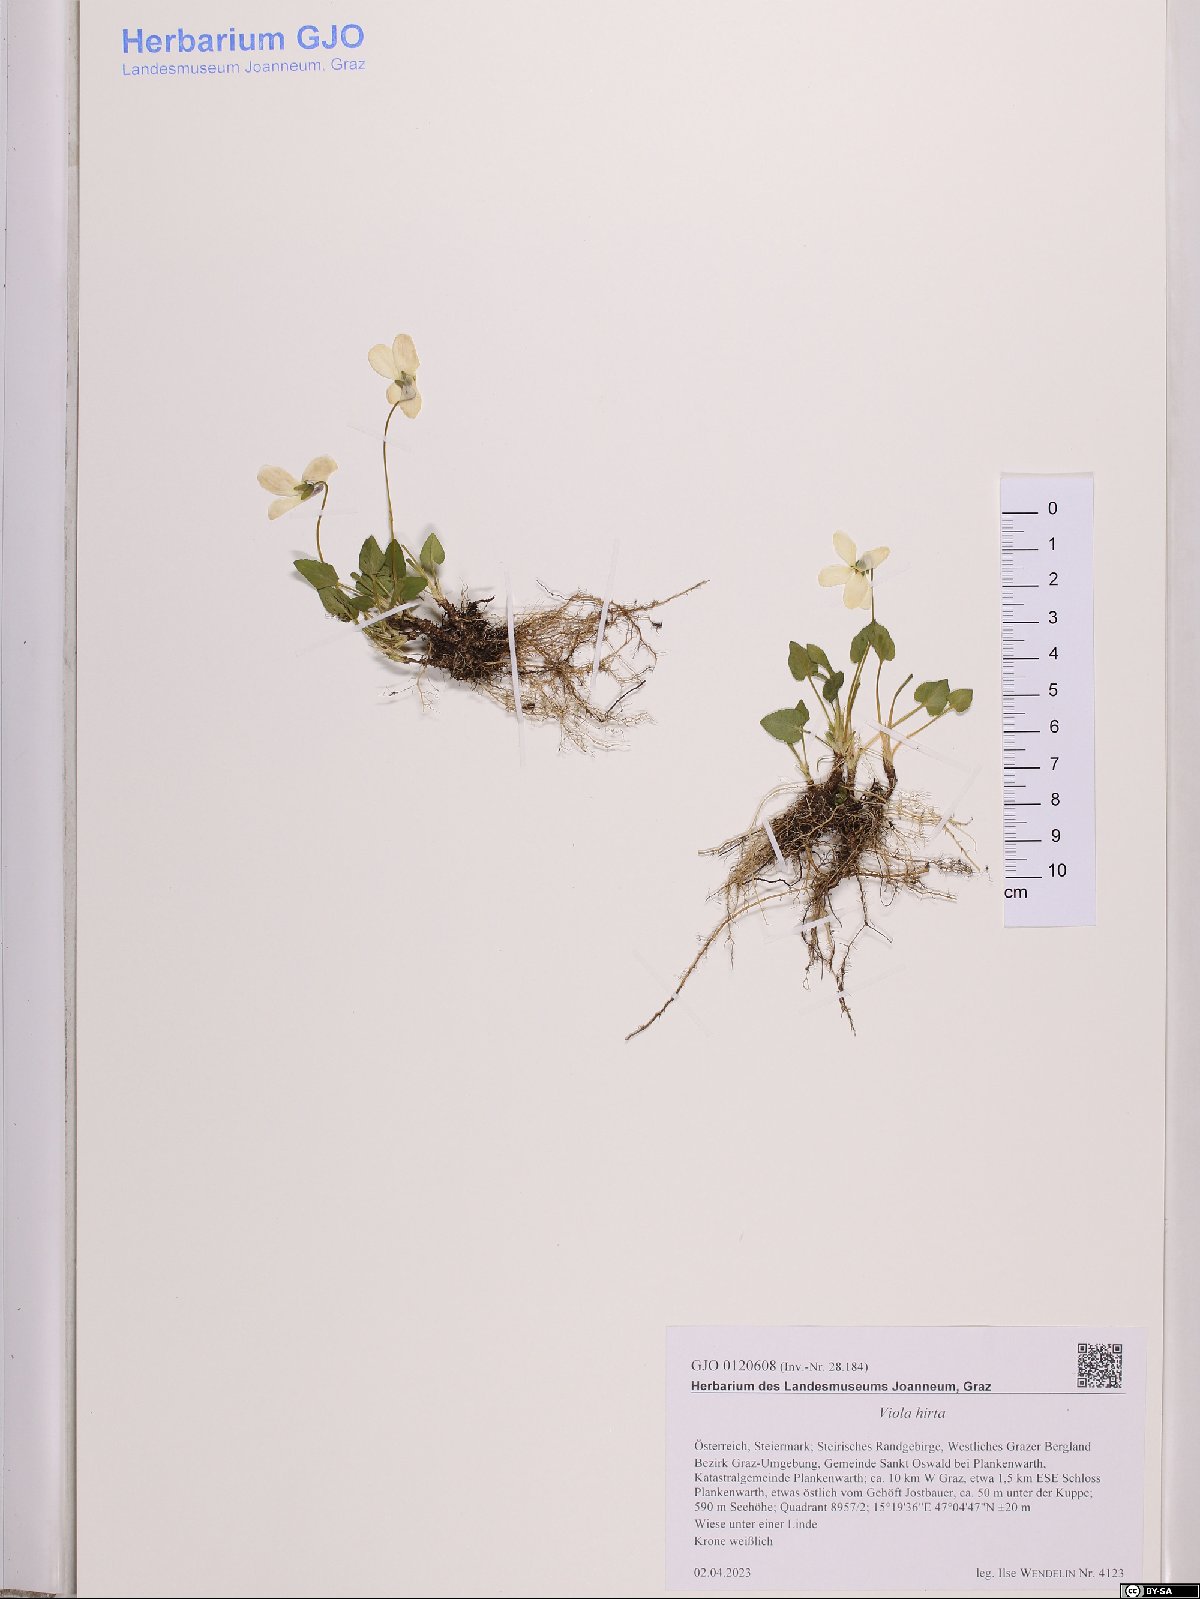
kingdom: Plantae
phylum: Tracheophyta
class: Magnoliopsida
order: Malpighiales
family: Violaceae
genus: Viola
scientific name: Viola hirta
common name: Hairy violet
